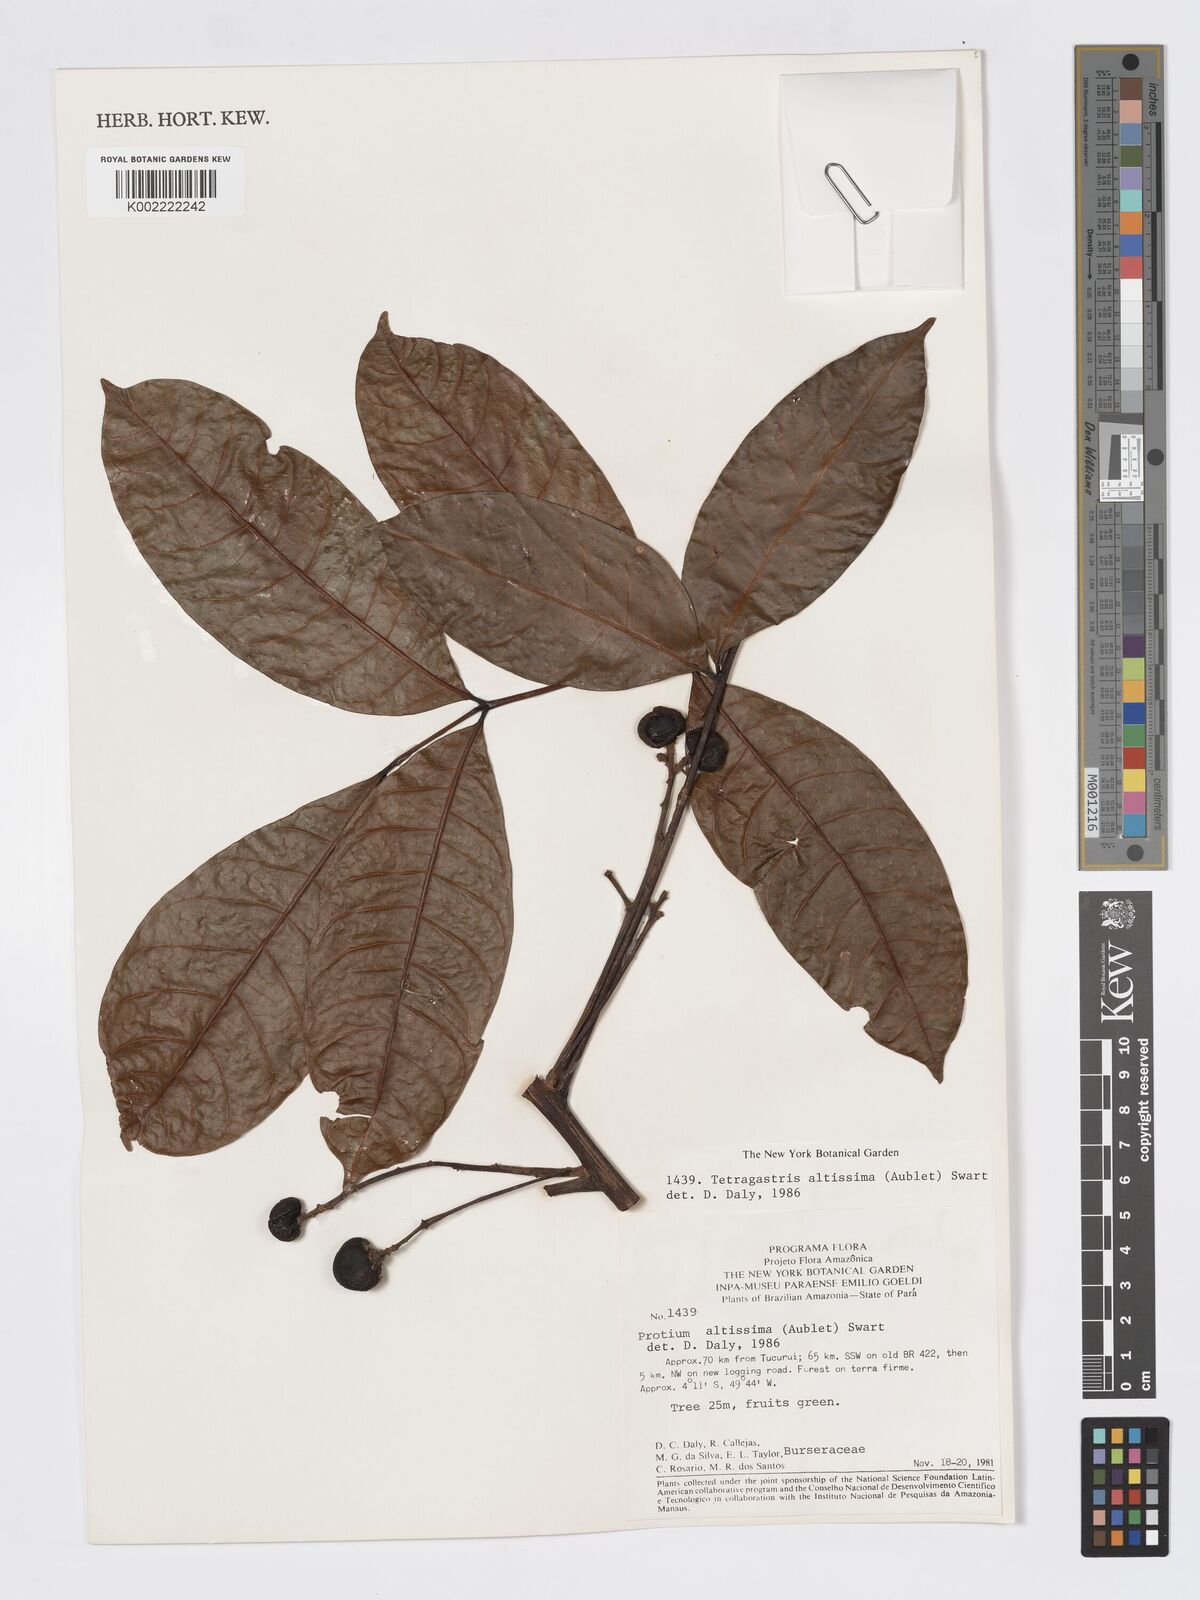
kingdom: Plantae
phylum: Tracheophyta
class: Magnoliopsida
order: Sapindales
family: Burseraceae
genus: Tetragastris
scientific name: Tetragastris altissima
